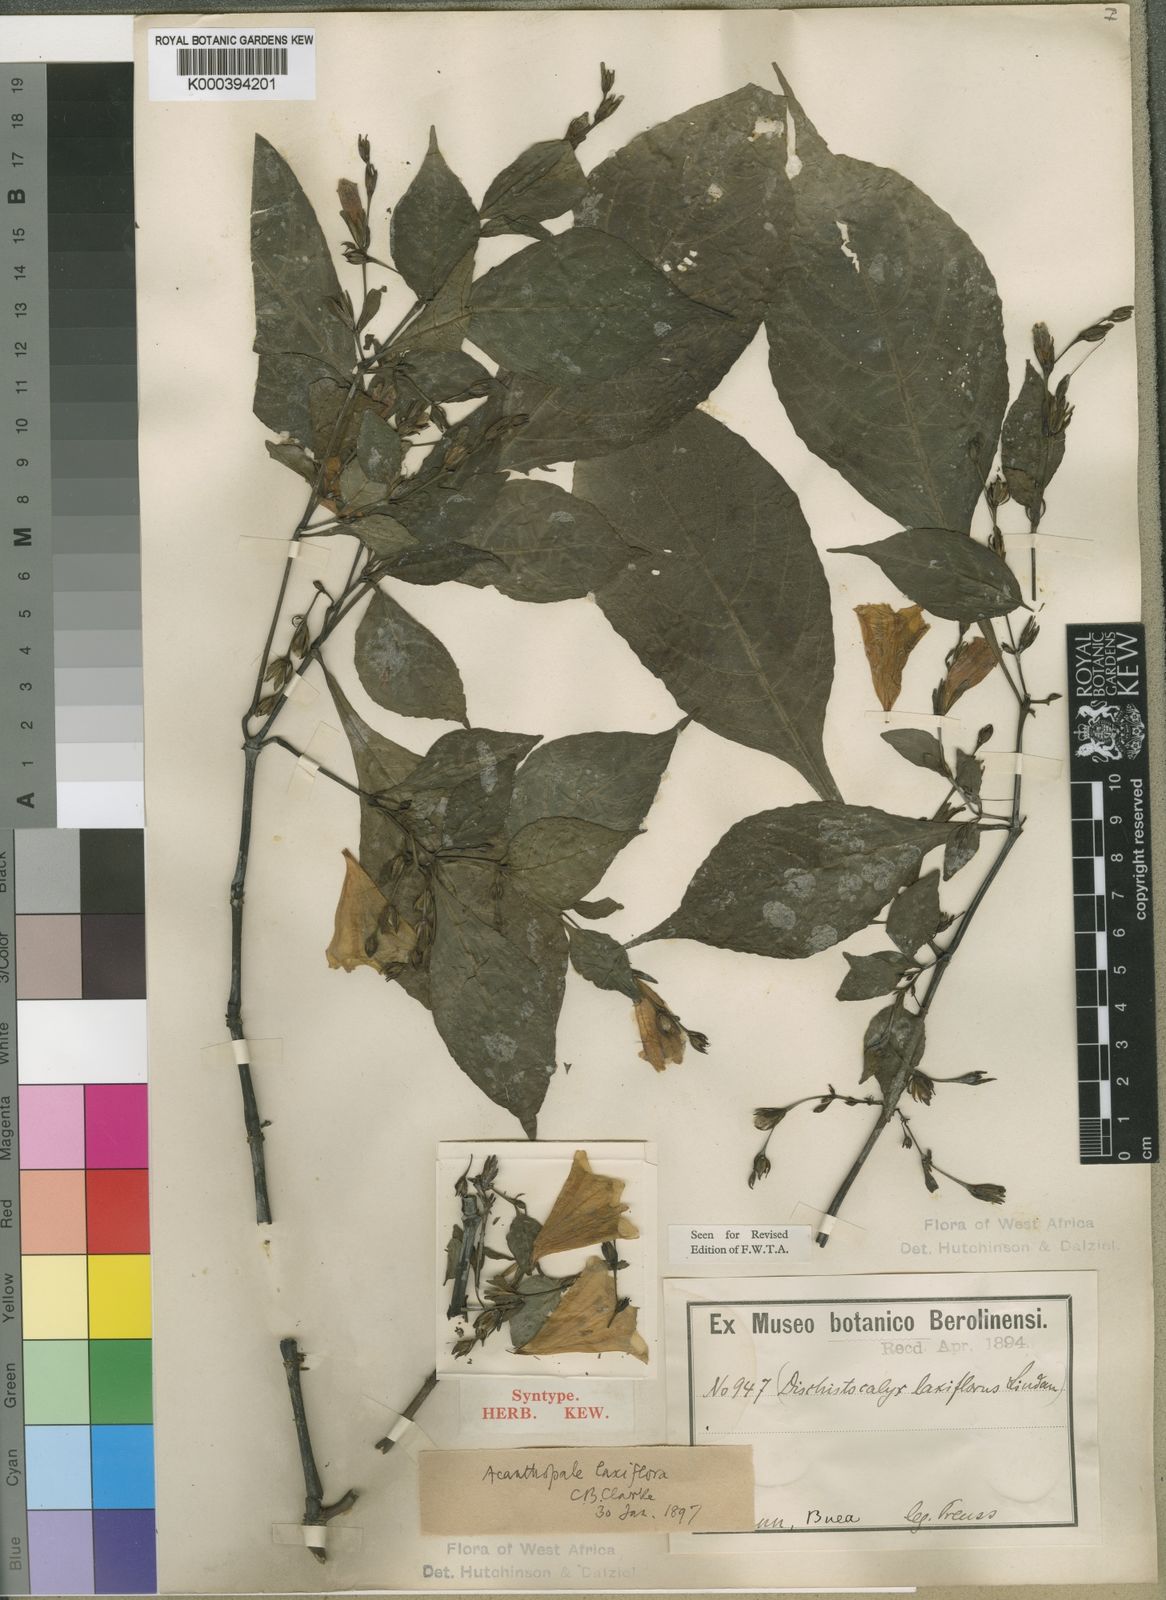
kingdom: Plantae
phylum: Tracheophyta
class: Magnoliopsida
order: Lamiales
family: Acanthaceae
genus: Acanthopale
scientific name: Acanthopale decempedalis
